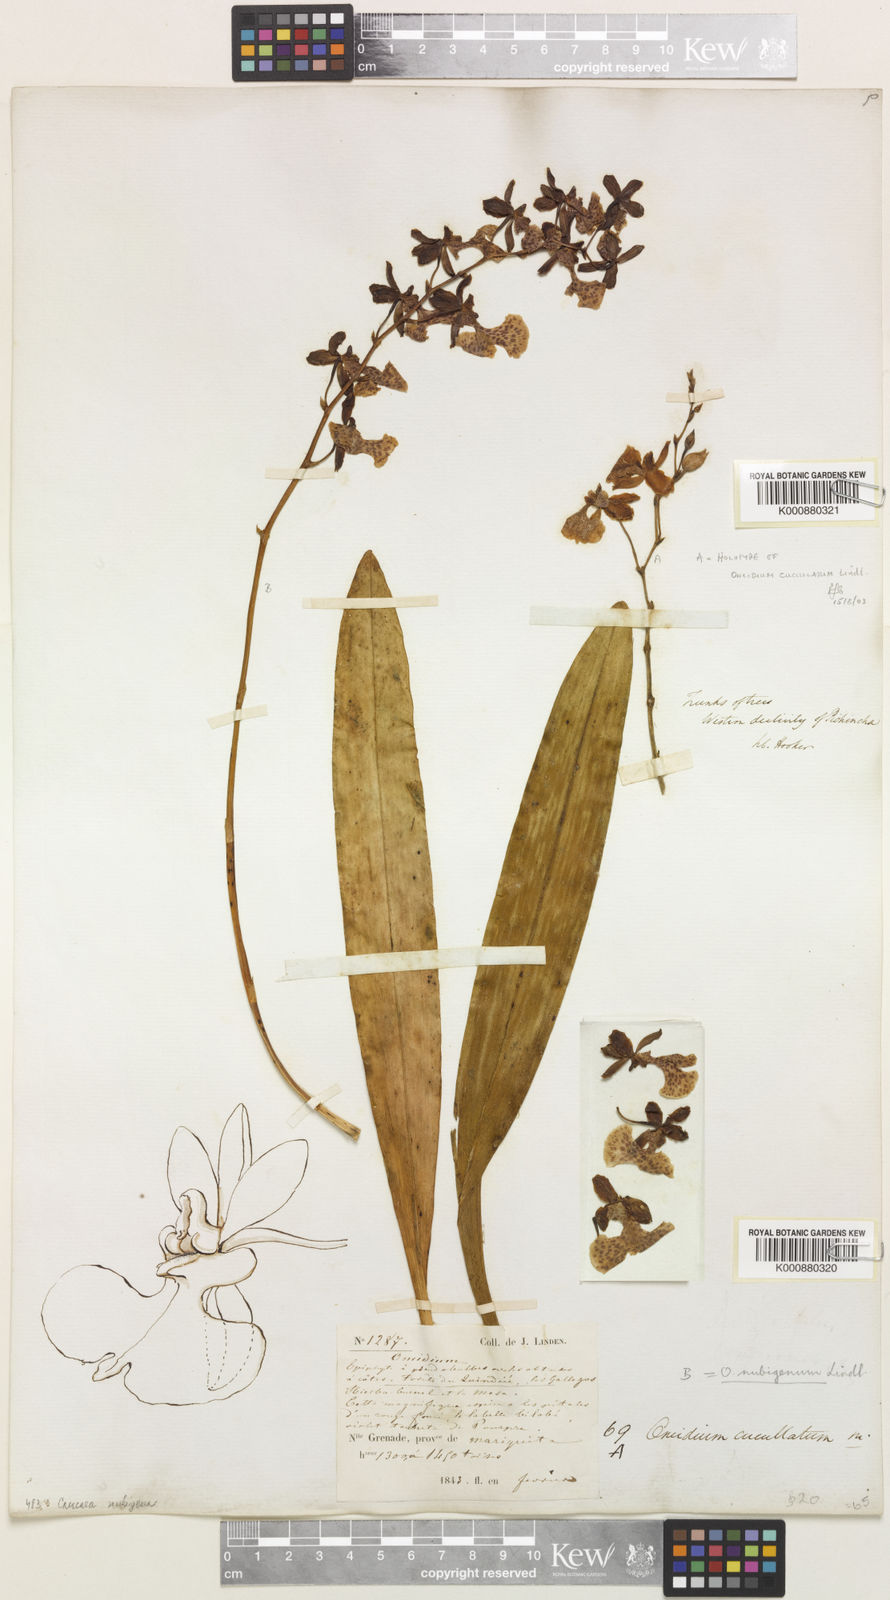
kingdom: Plantae
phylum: Tracheophyta
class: Liliopsida
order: Asparagales
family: Orchidaceae
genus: Caucaea
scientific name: Caucaea nubigena
